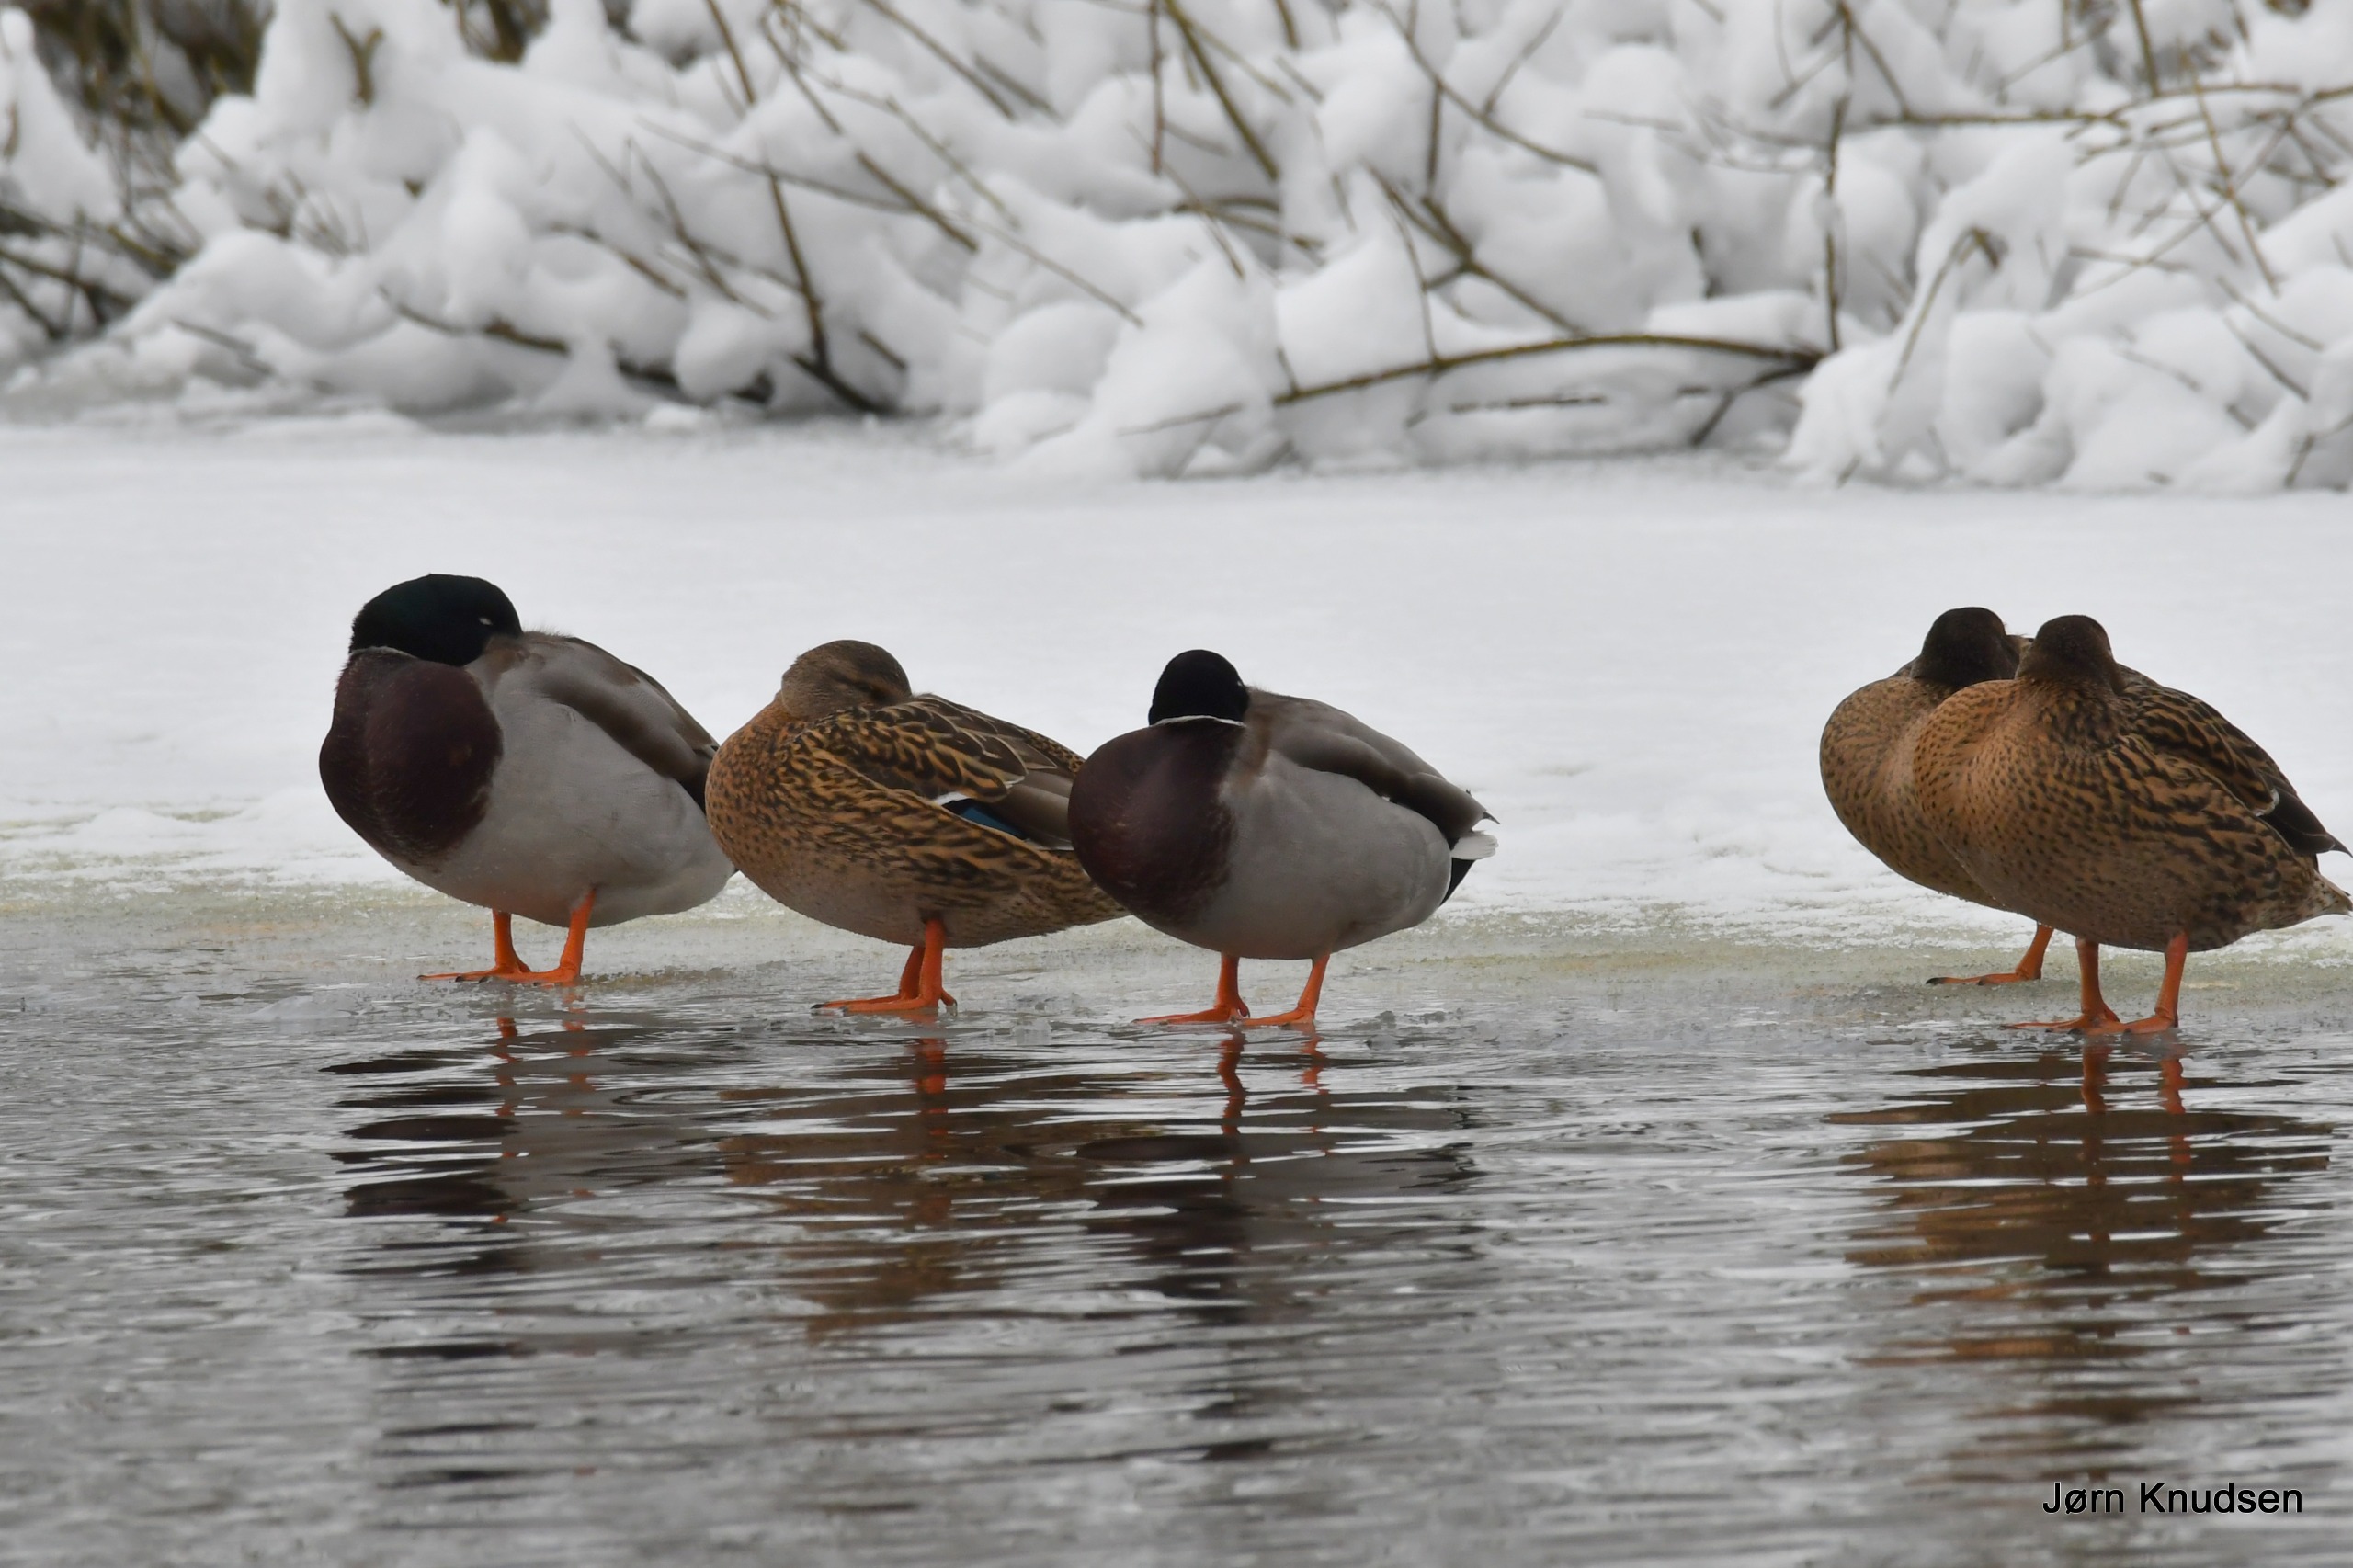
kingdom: Animalia
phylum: Chordata
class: Aves
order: Anseriformes
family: Anatidae
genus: Anas
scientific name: Anas platyrhynchos
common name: Gråand
